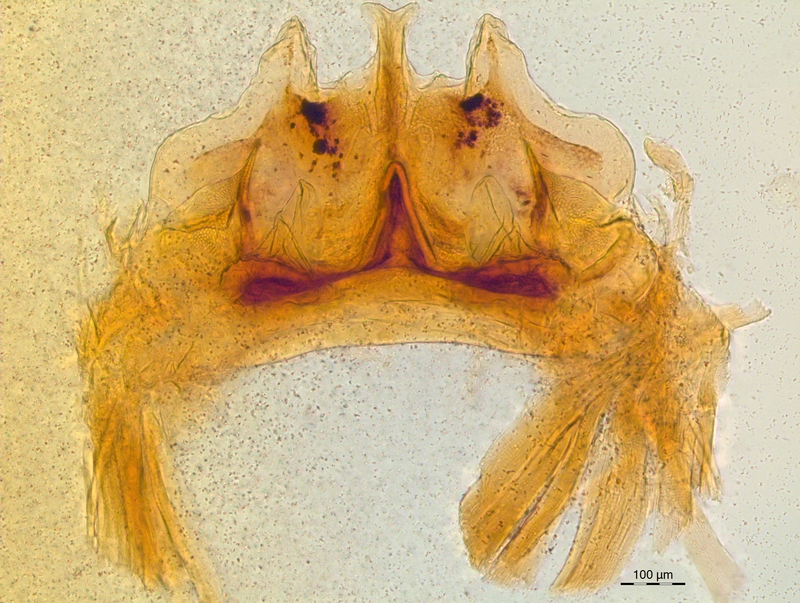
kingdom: Animalia
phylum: Arthropoda
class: Diplopoda
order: Chordeumatida
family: Craspedosomatidae
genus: Craspedosoma
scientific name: Craspedosoma rawlinsii
